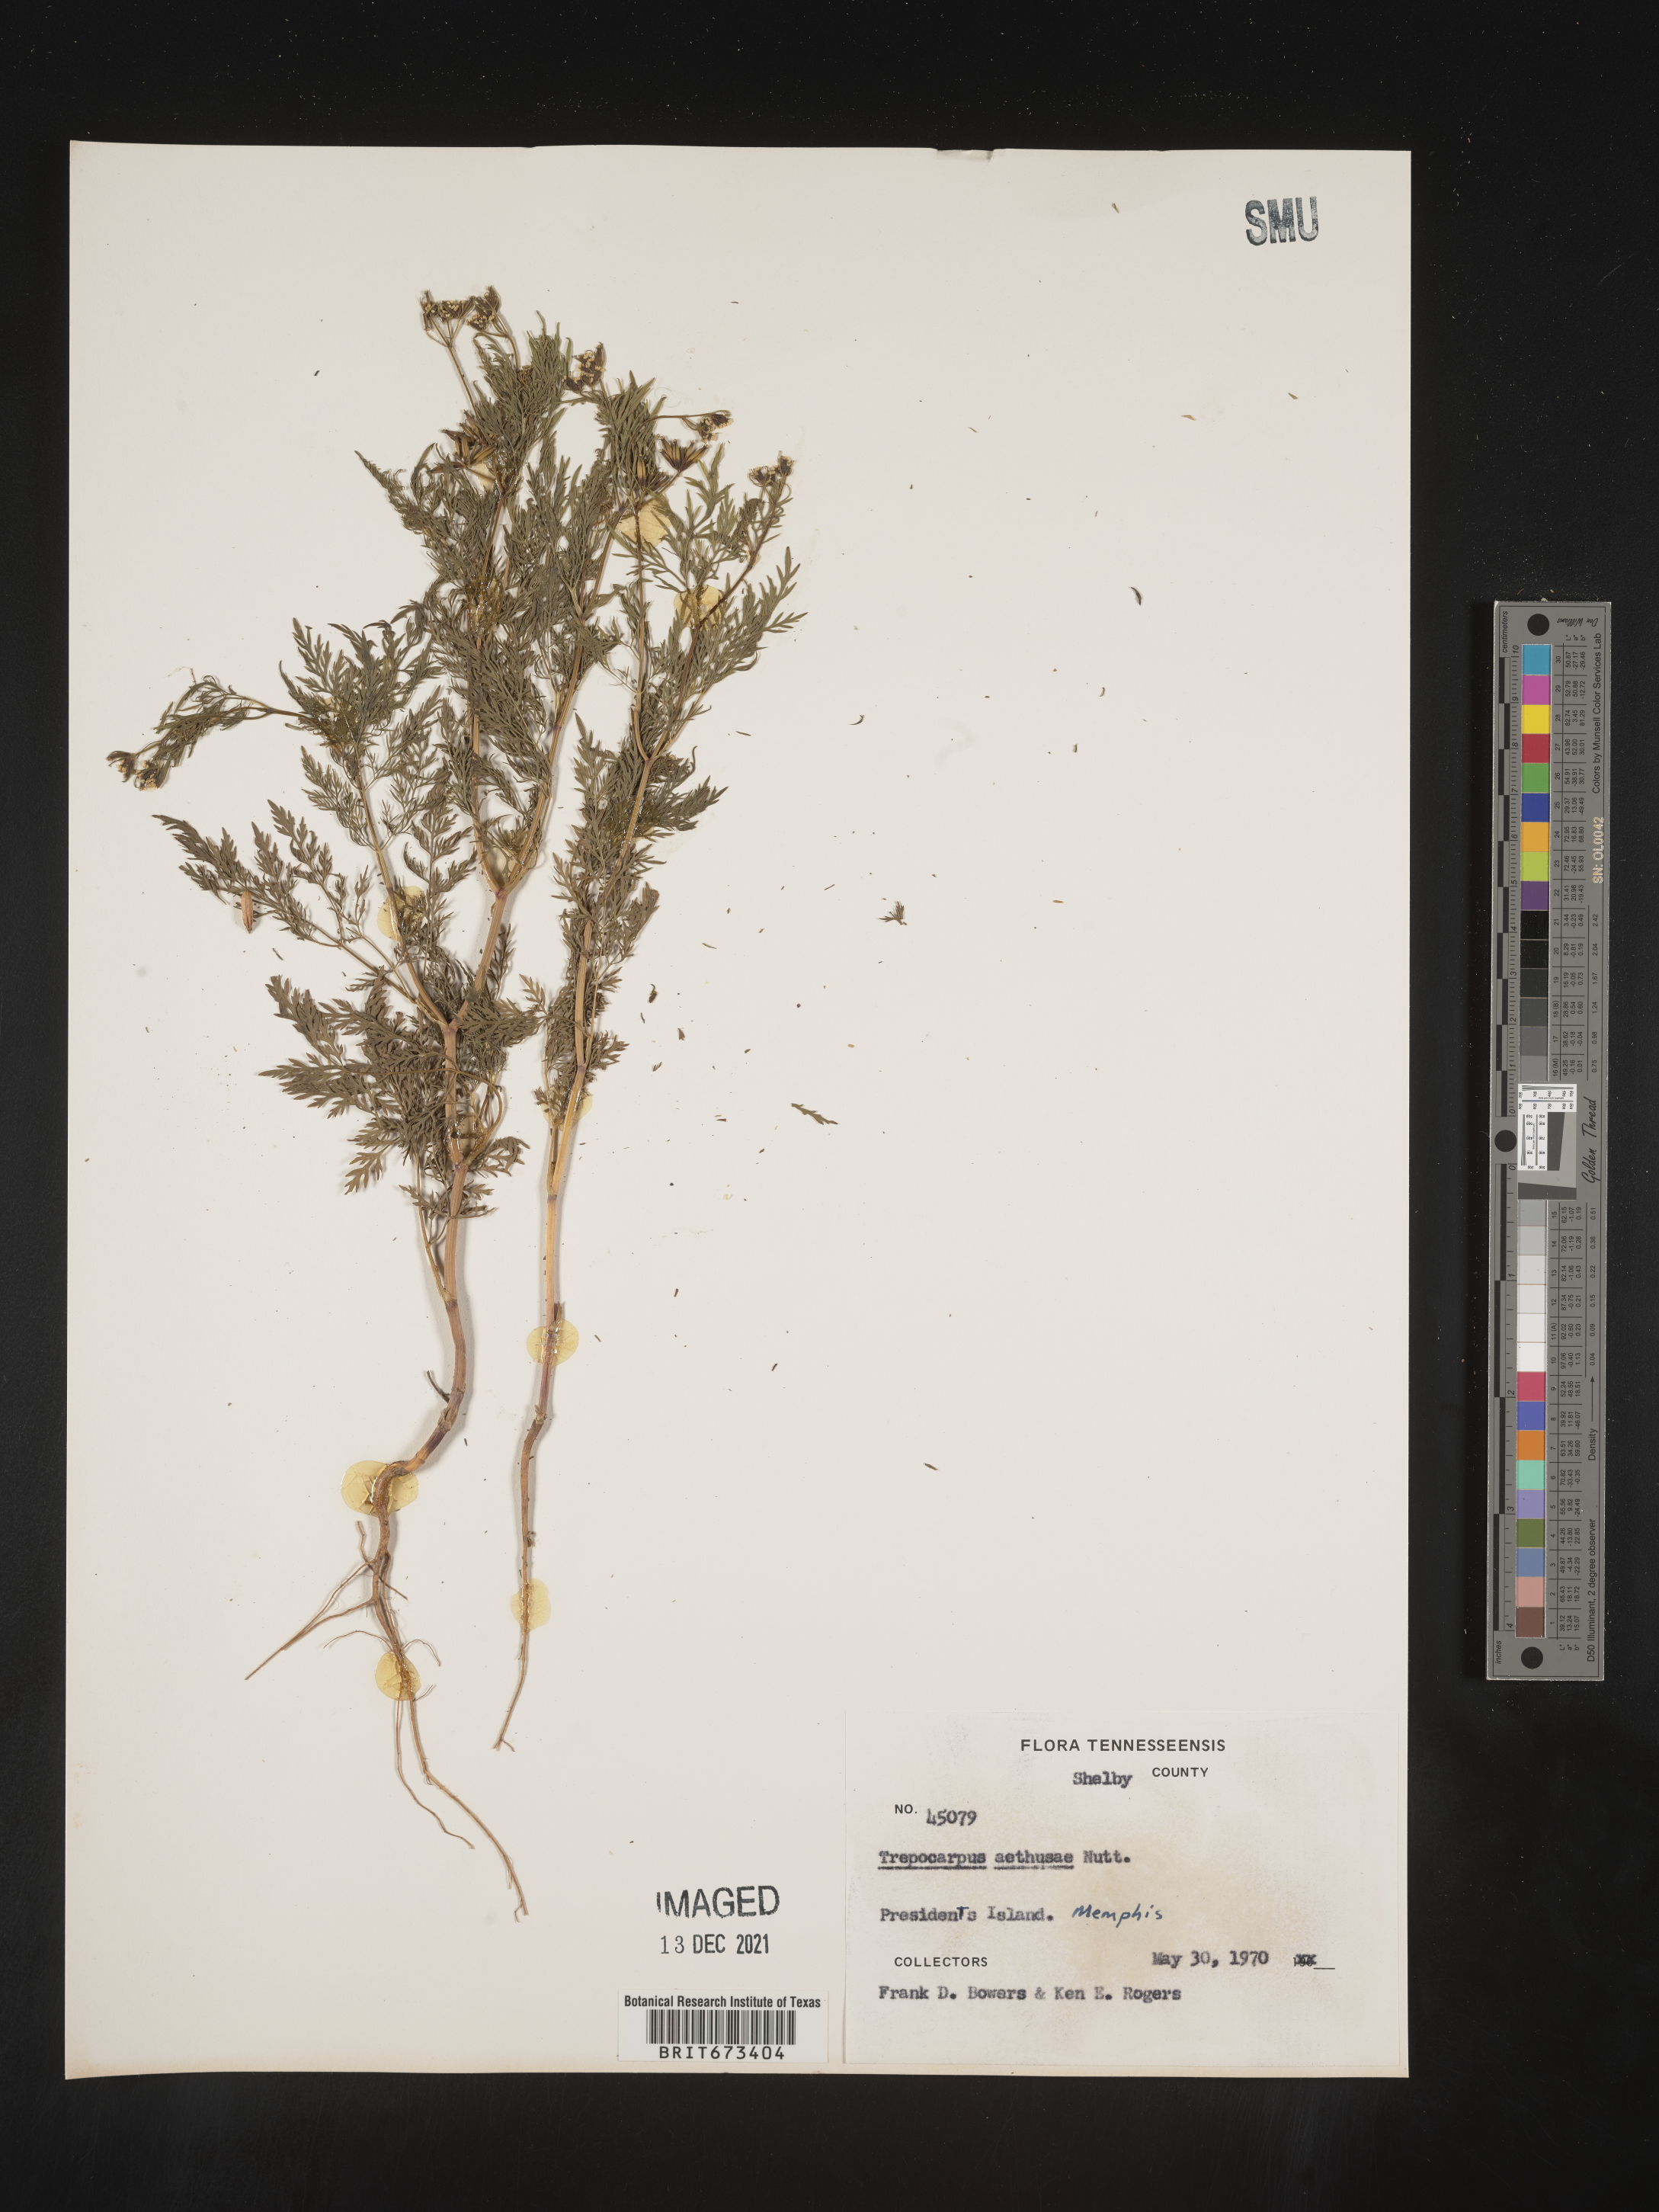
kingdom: Plantae
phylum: Tracheophyta
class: Magnoliopsida
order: Apiales
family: Apiaceae
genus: Trepocarpus
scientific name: Trepocarpus aethusae
